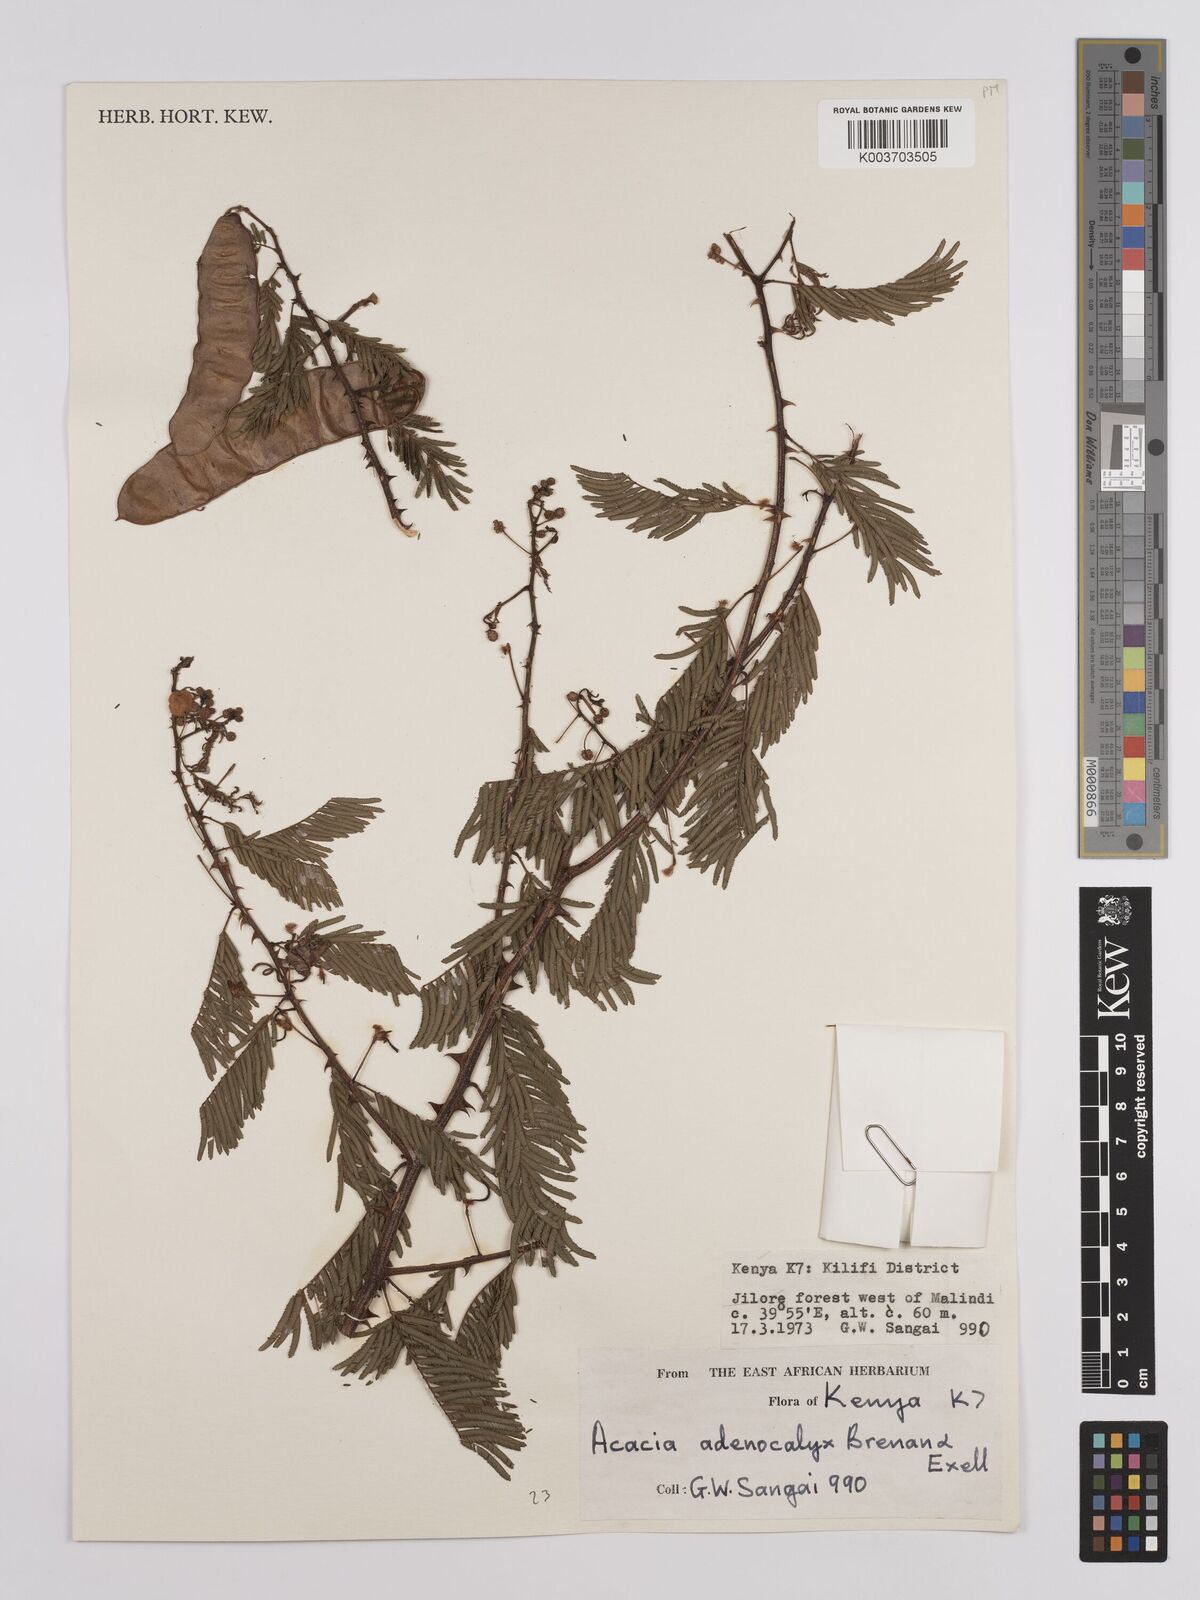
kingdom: Plantae
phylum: Tracheophyta
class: Magnoliopsida
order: Fabales
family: Fabaceae
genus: Senegalia
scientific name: Senegalia adenocalyx
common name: Pfurura
